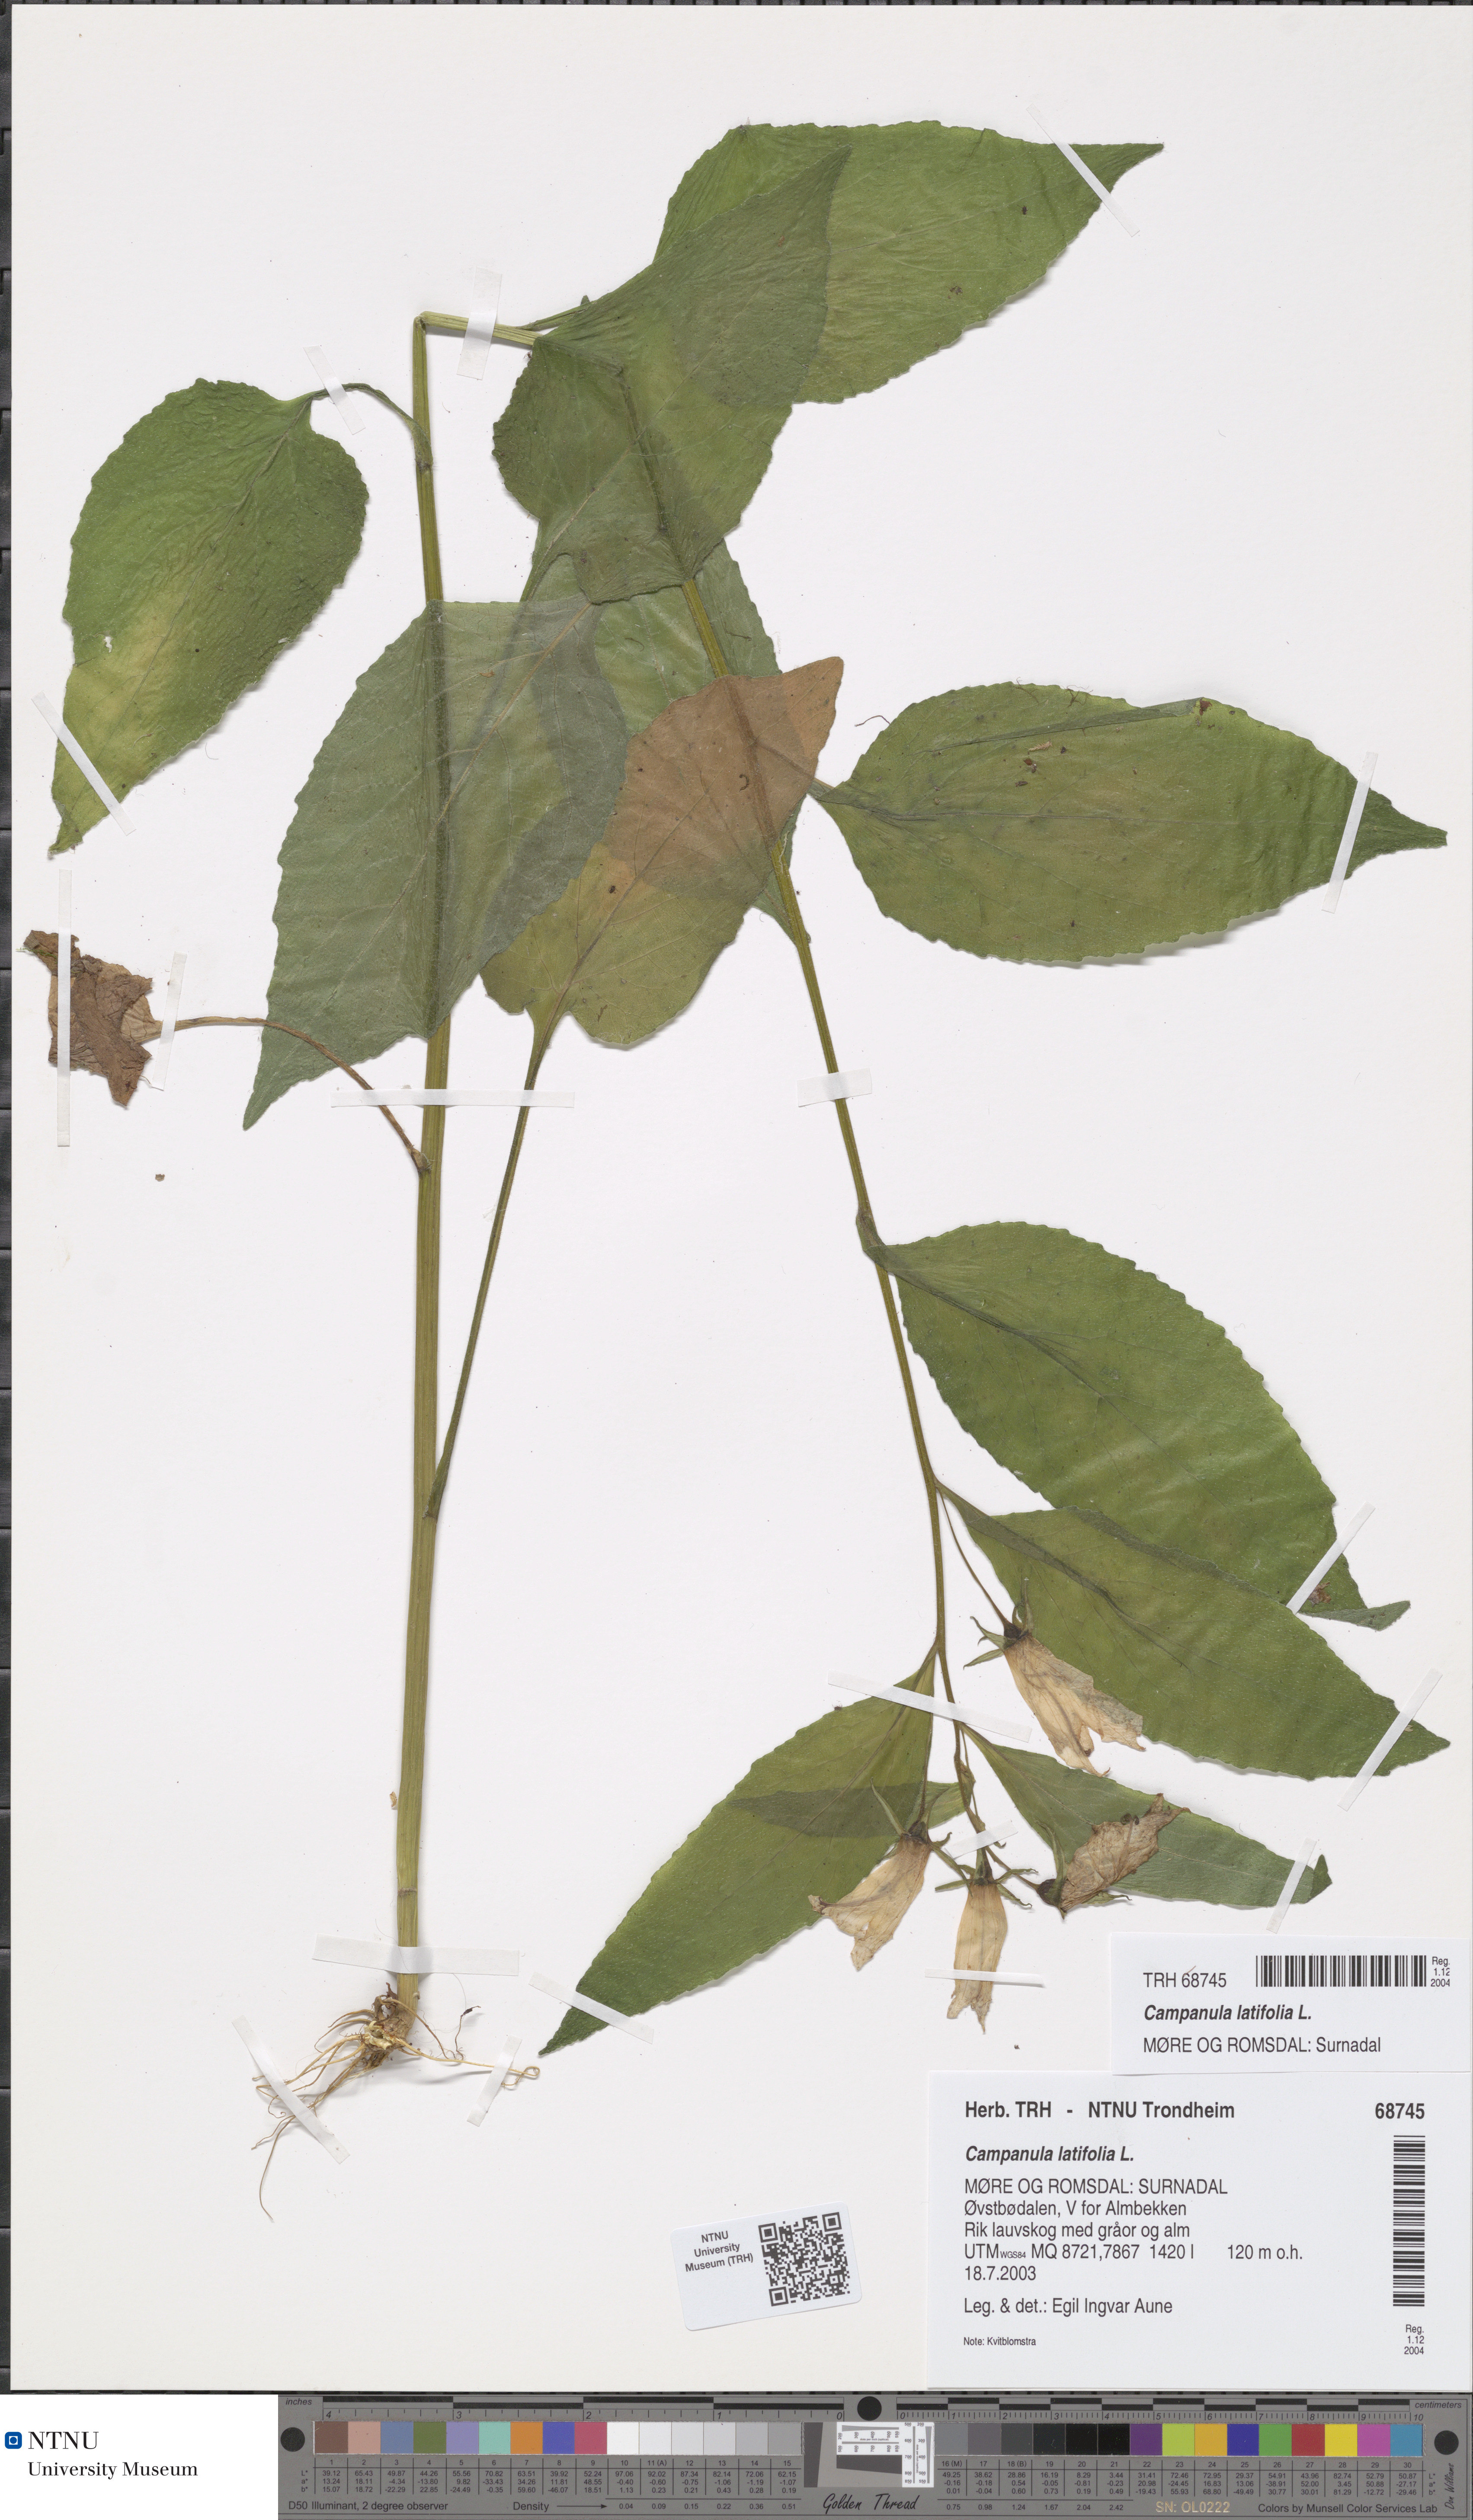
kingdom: Plantae
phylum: Tracheophyta
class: Magnoliopsida
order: Asterales
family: Campanulaceae
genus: Campanula
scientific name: Campanula latifolia
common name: Giant bellflower
